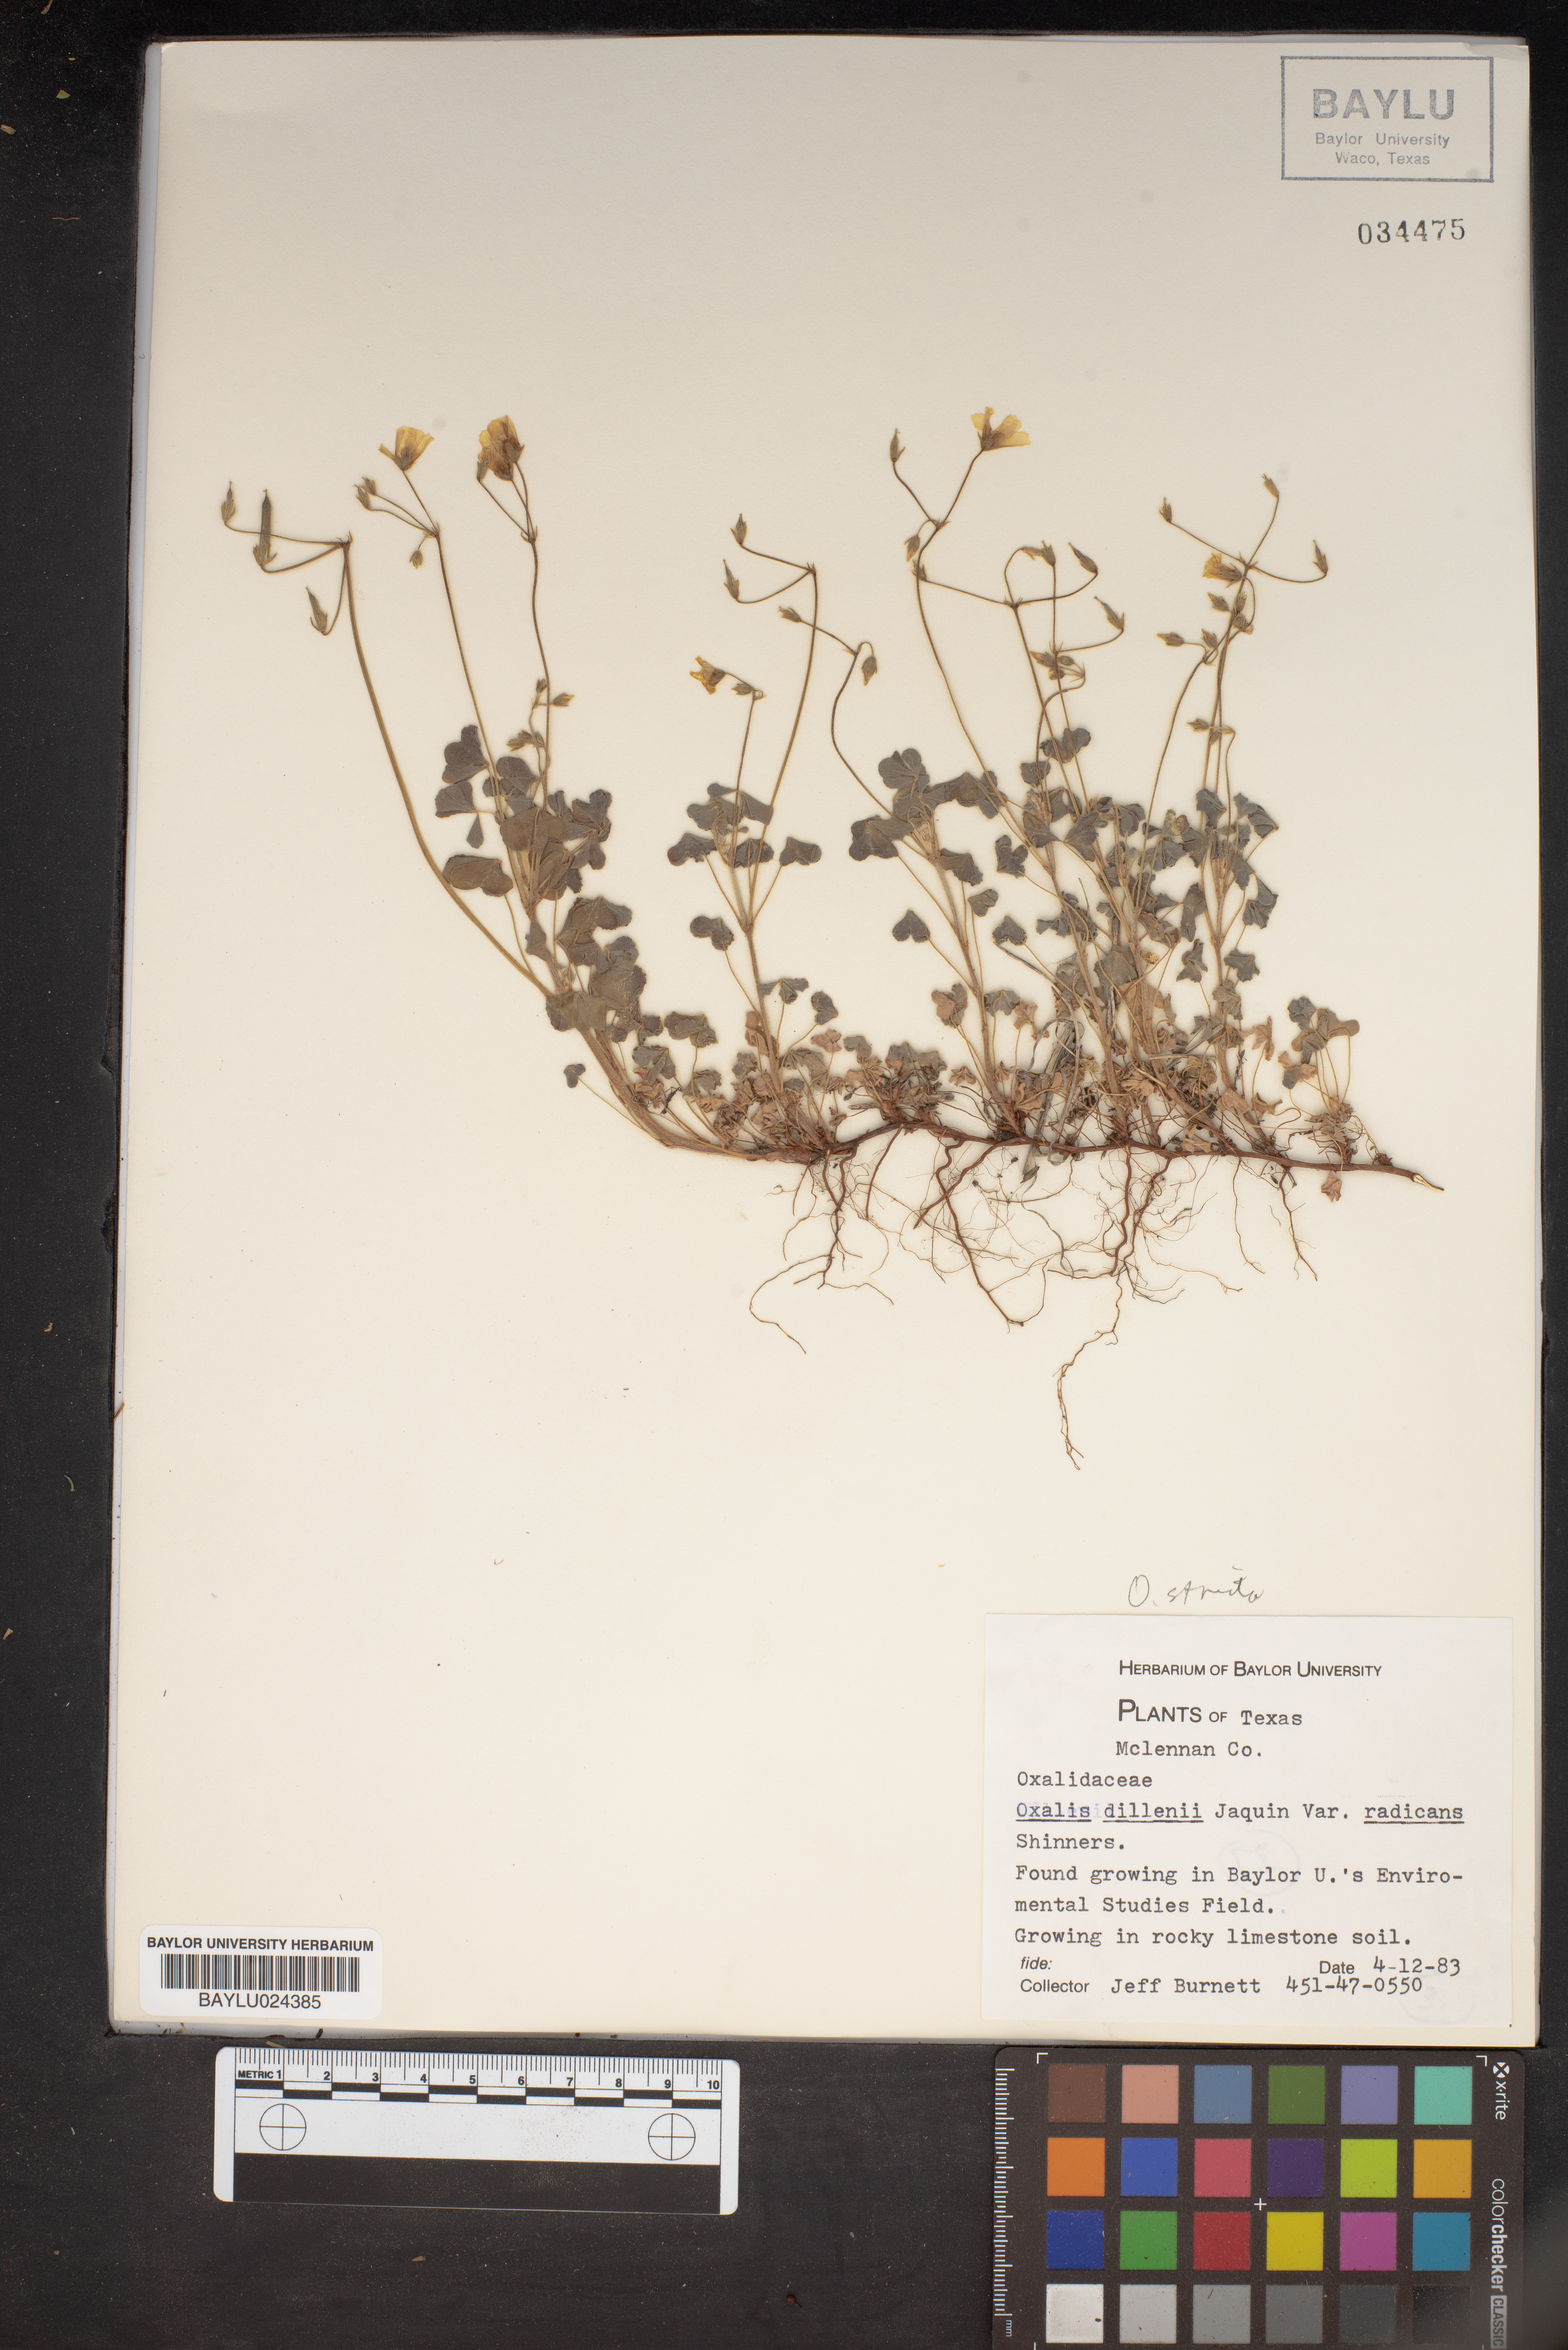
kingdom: Plantae
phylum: Tracheophyta
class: Magnoliopsida
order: Oxalidales
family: Oxalidaceae
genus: Oxalis
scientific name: Oxalis dillenii
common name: Sussex yellow-sorrel
